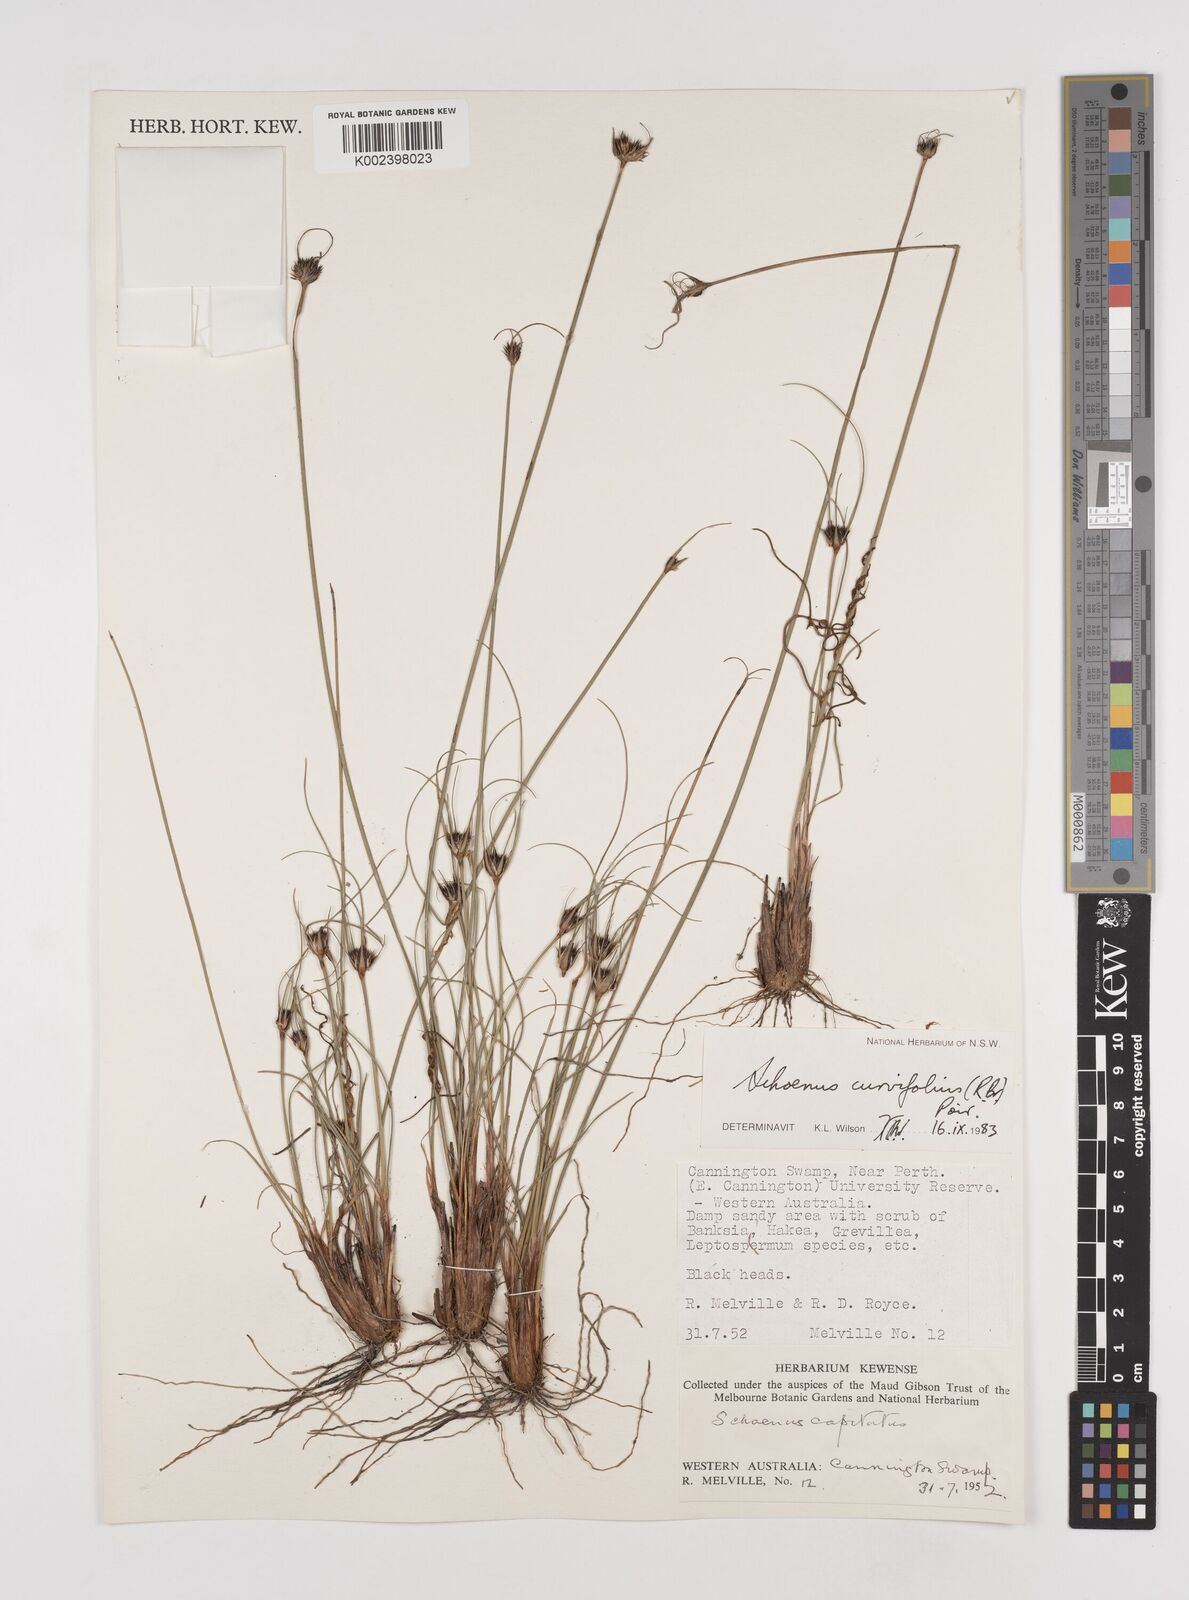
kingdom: Plantae
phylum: Tracheophyta
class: Liliopsida
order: Poales
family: Cyperaceae
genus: Schoenus
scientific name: Schoenus curvifolius
